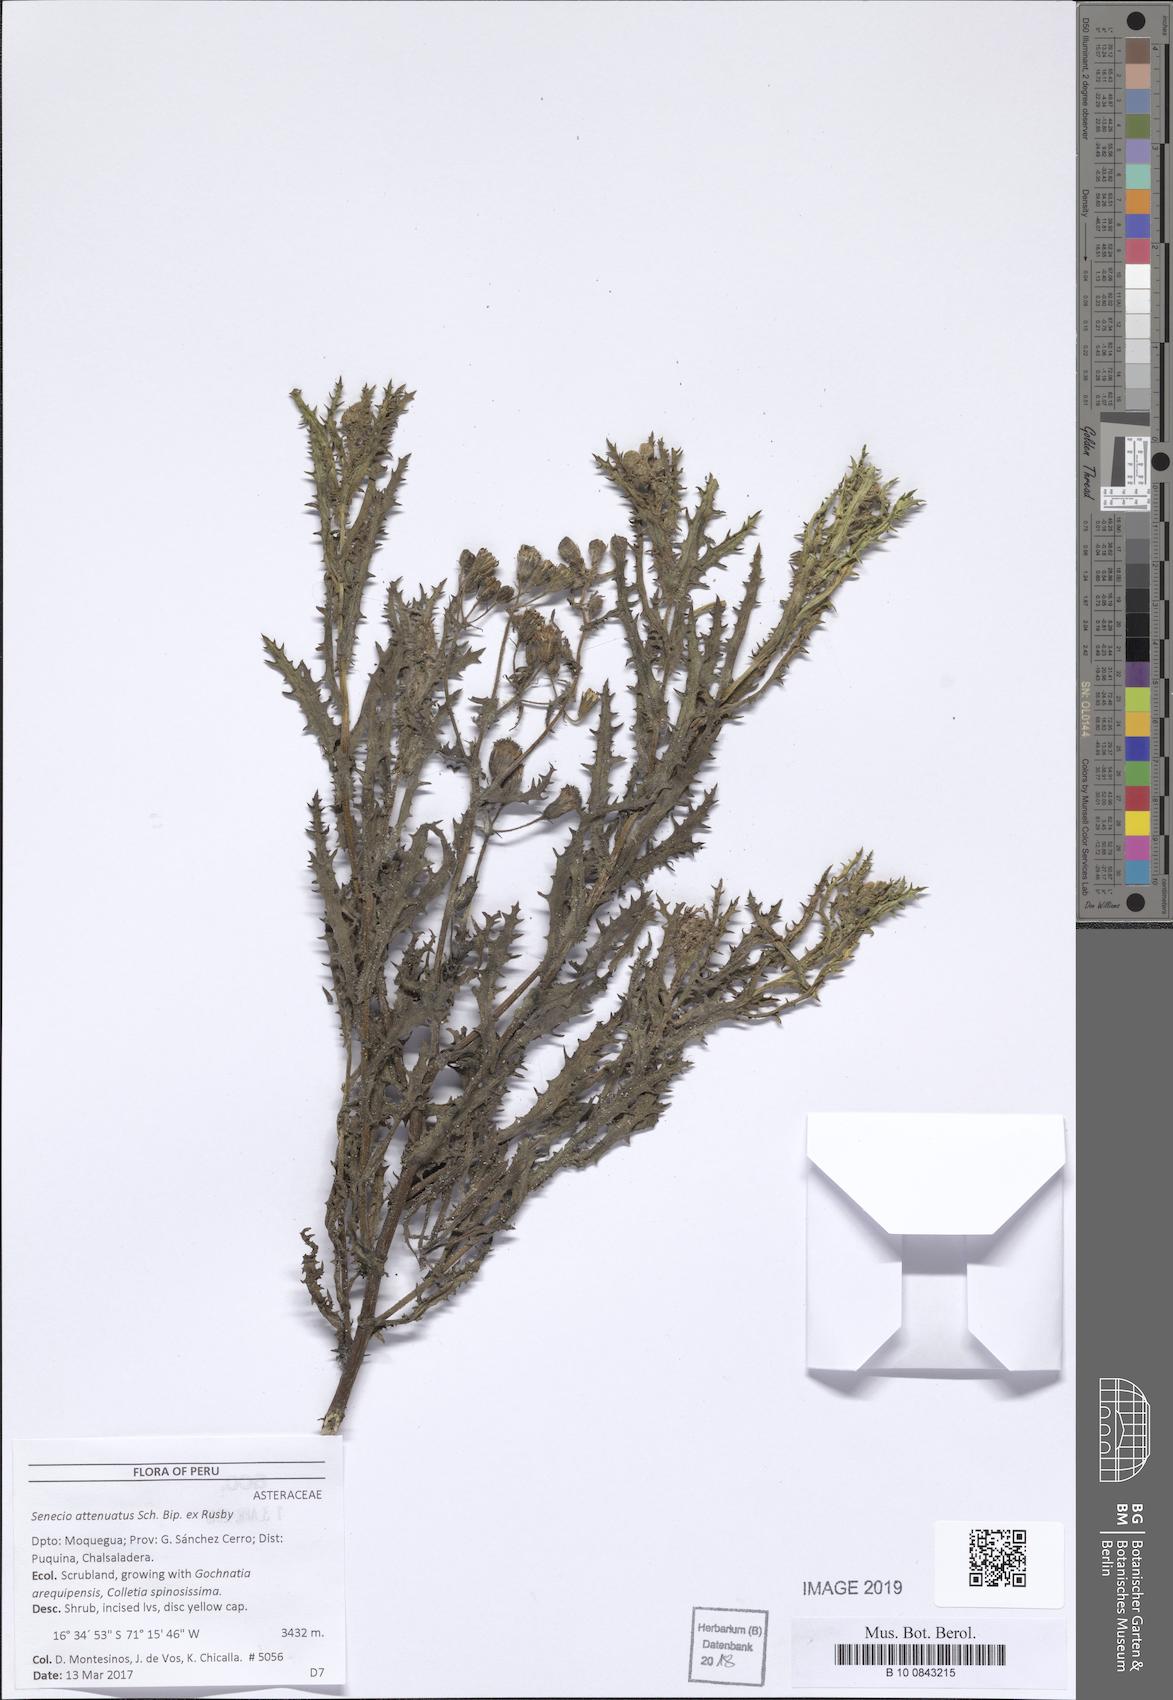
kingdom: Plantae
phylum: Tracheophyta
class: Magnoliopsida
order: Asterales
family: Asteraceae
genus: Senecio
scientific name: Senecio attenuatus
